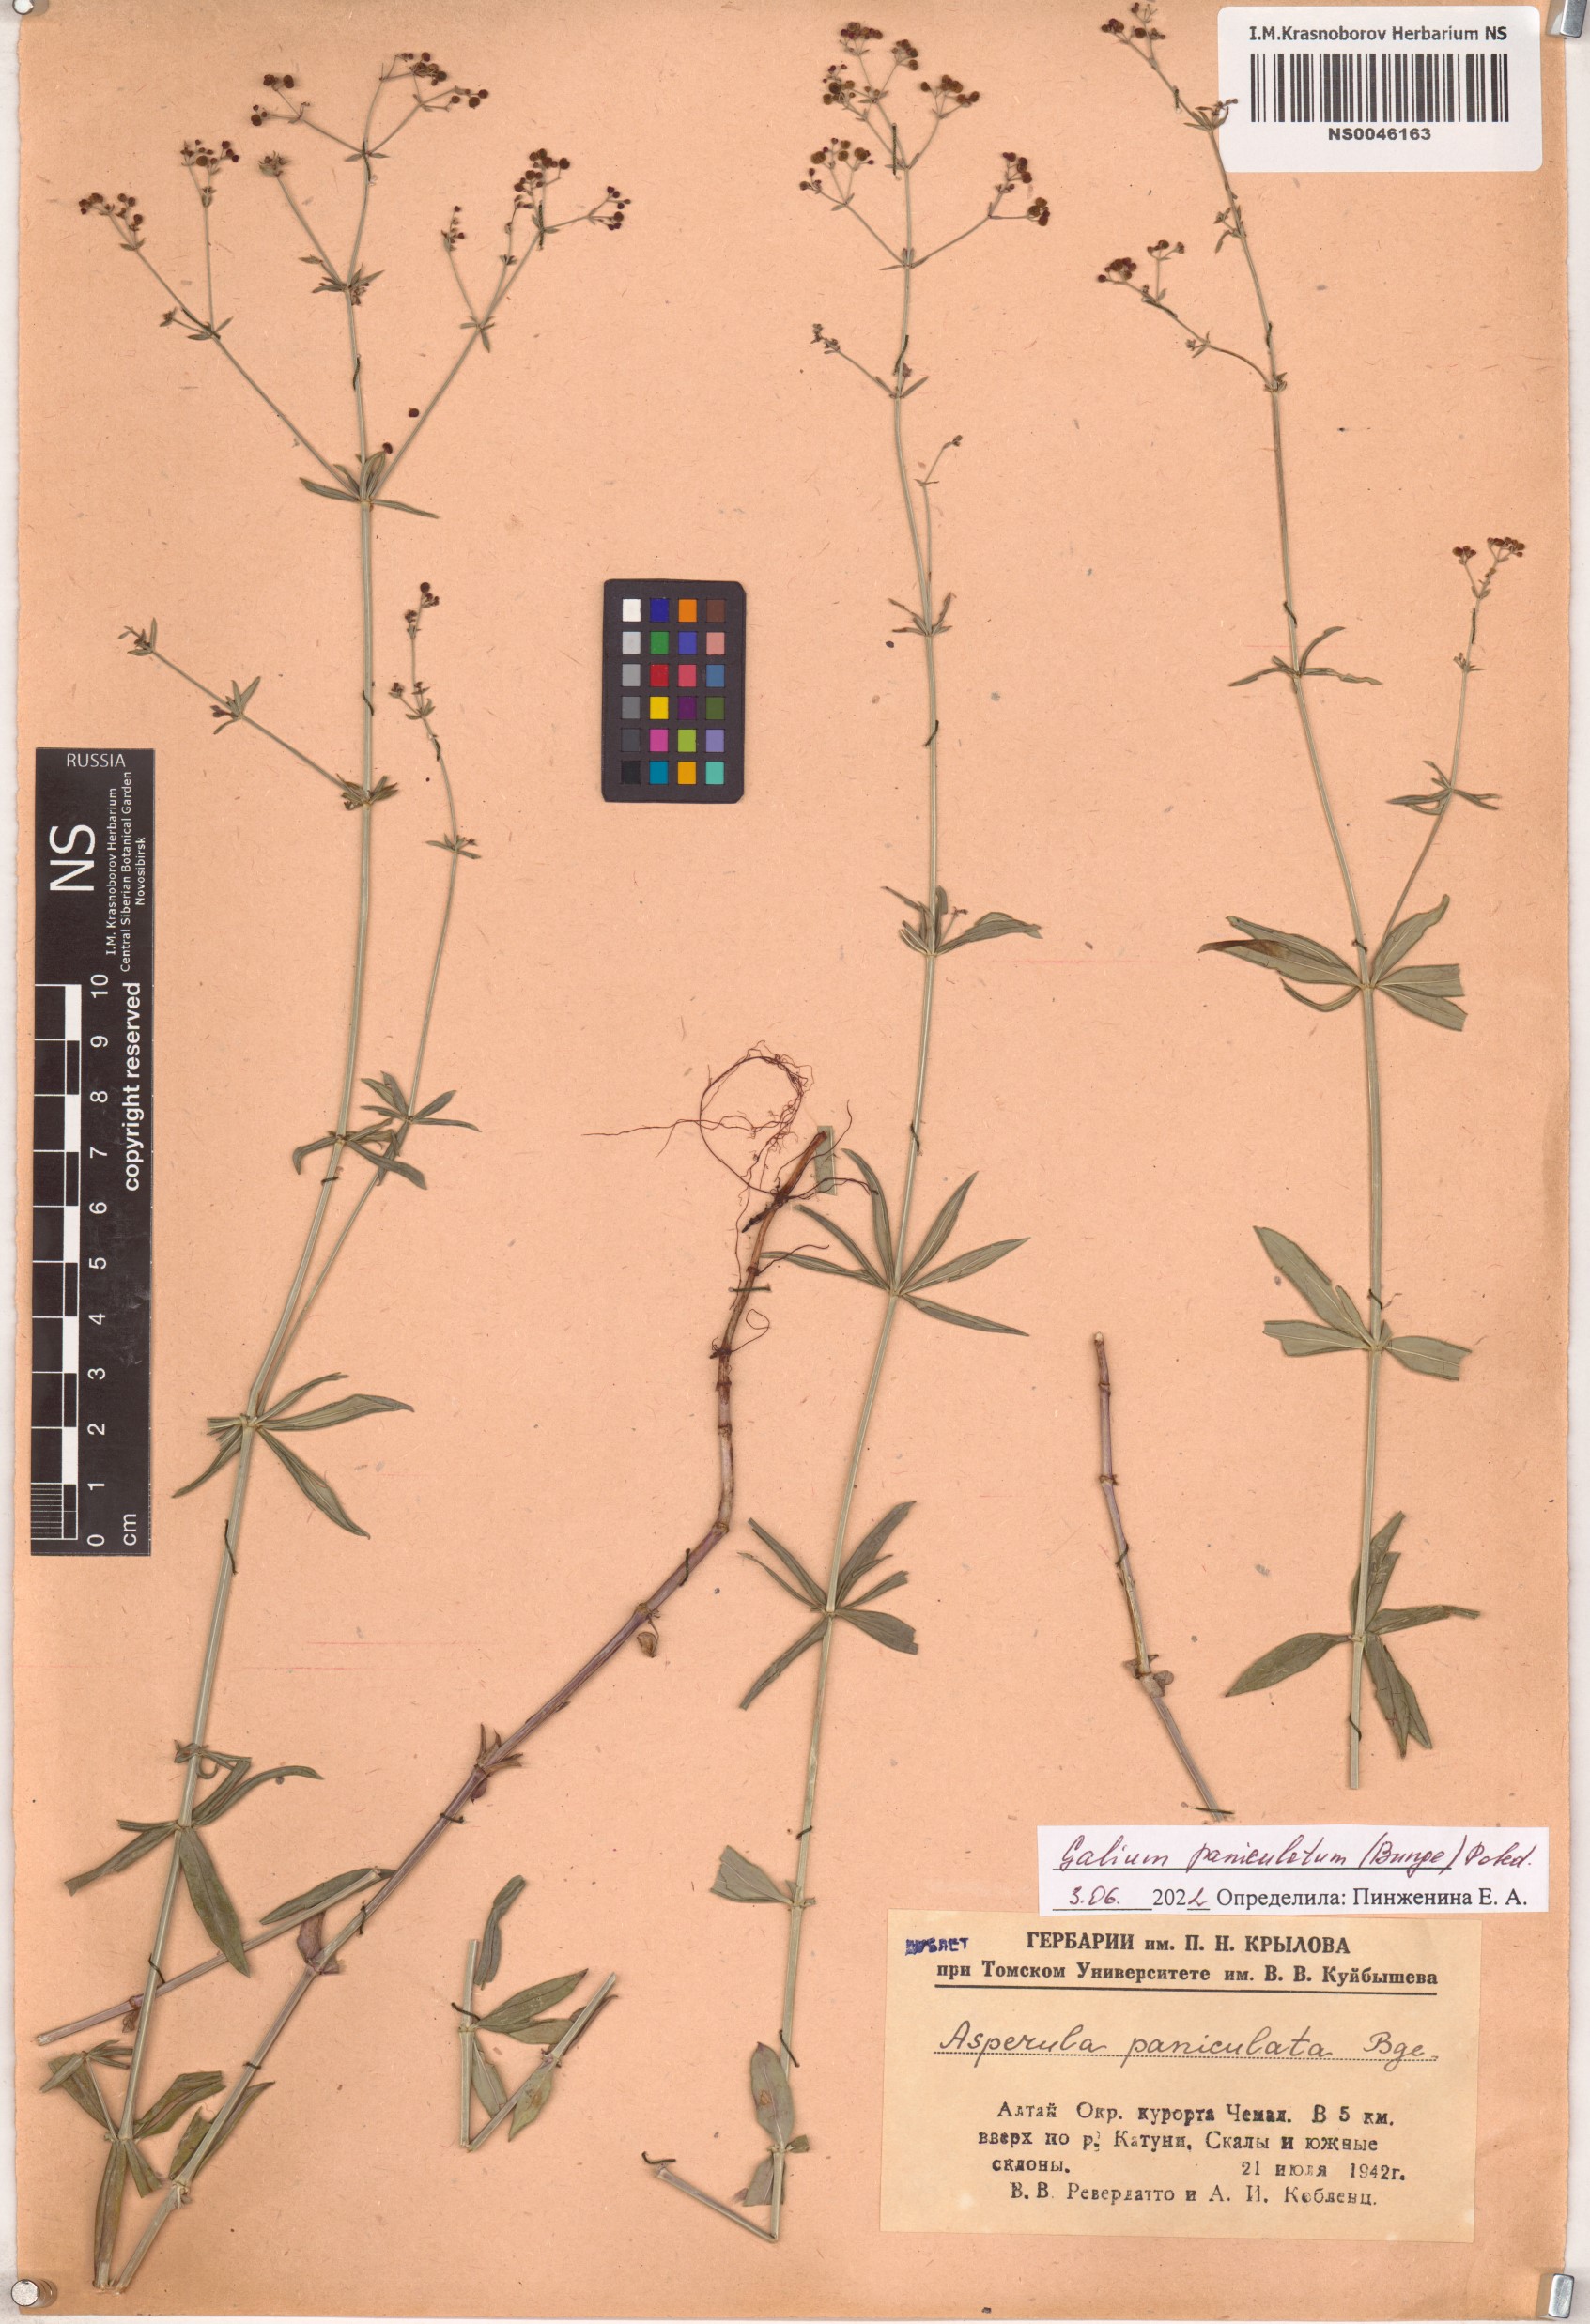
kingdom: Plantae
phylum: Tracheophyta
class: Magnoliopsida
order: Gentianales
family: Rubiaceae
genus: Galium
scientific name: Galium paniculatum
